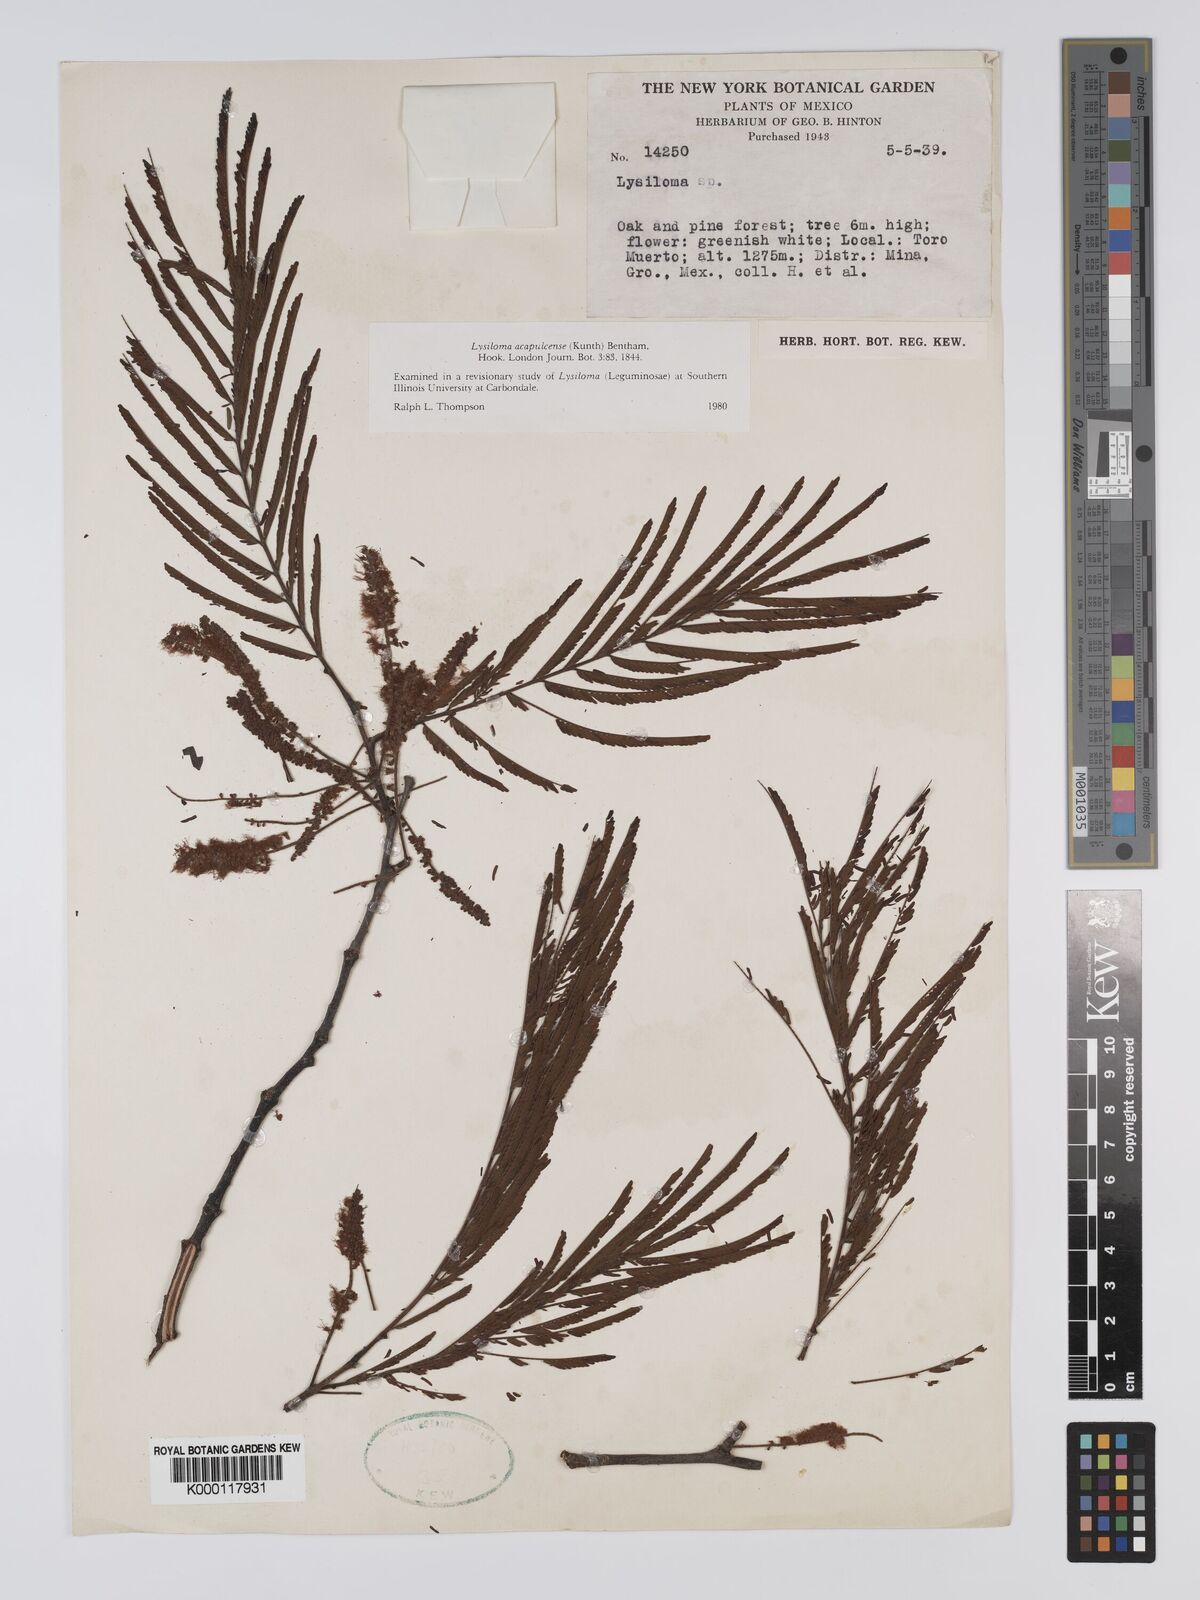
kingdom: Plantae
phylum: Tracheophyta
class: Magnoliopsida
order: Fabales
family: Fabaceae
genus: Lysiloma
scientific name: Lysiloma acapulcense
